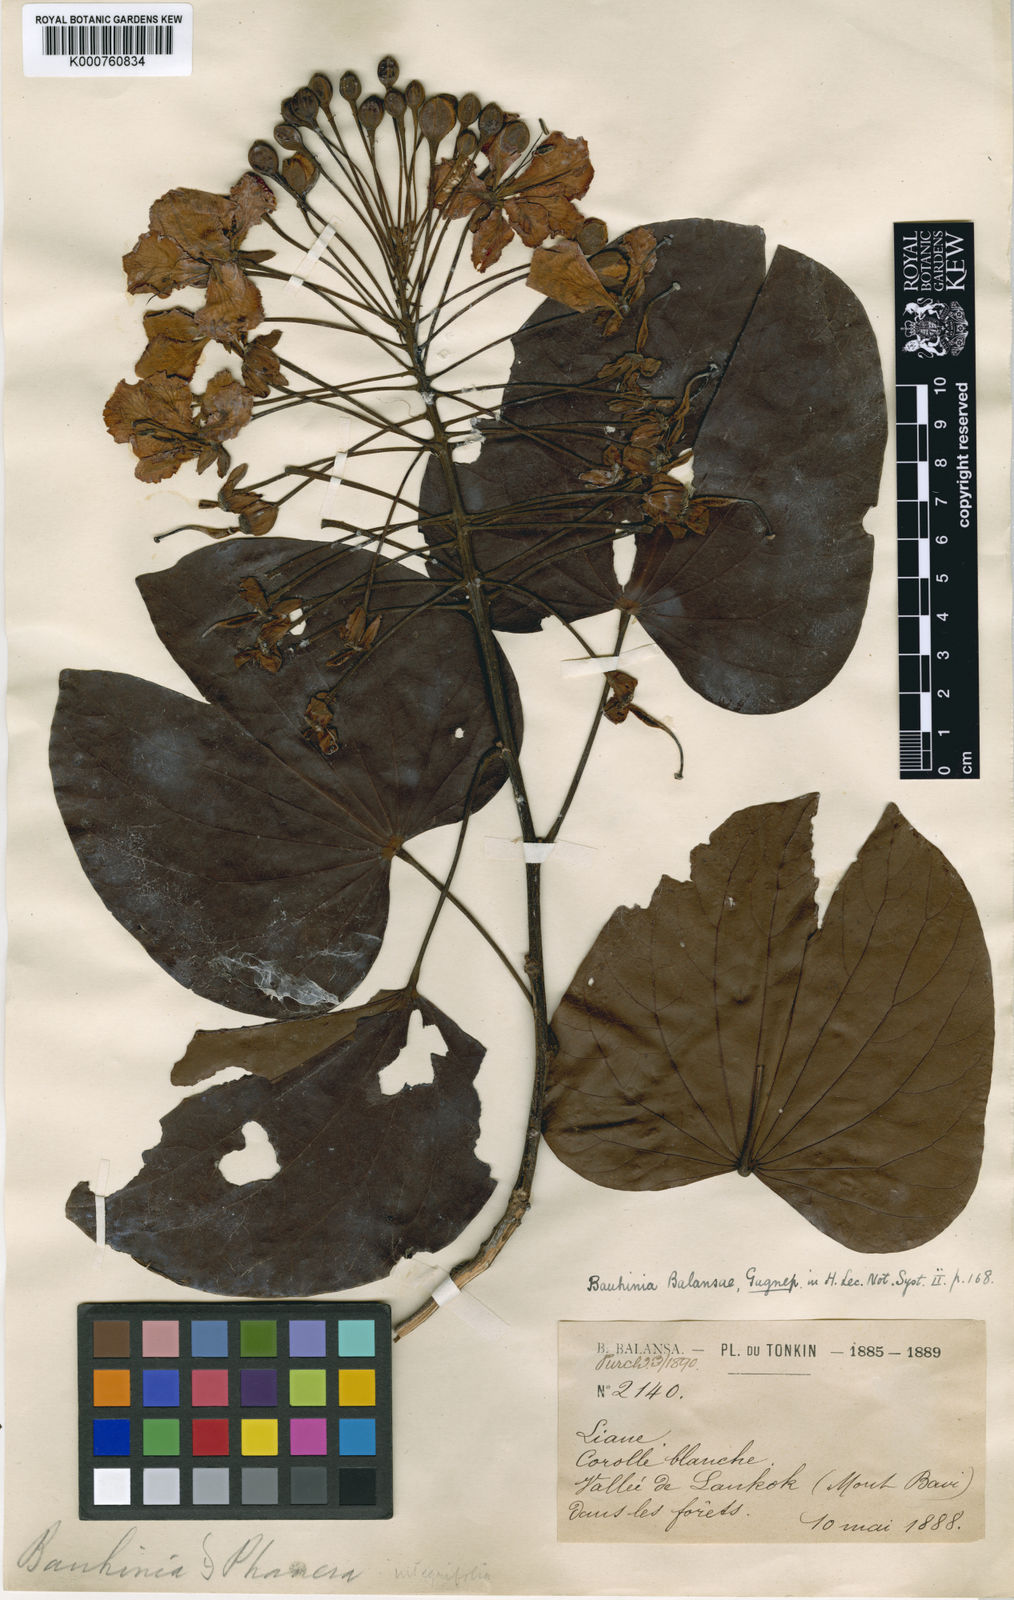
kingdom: Plantae
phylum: Tracheophyta
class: Magnoliopsida
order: Fabales
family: Fabaceae
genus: Phanera
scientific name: Phanera ornata
